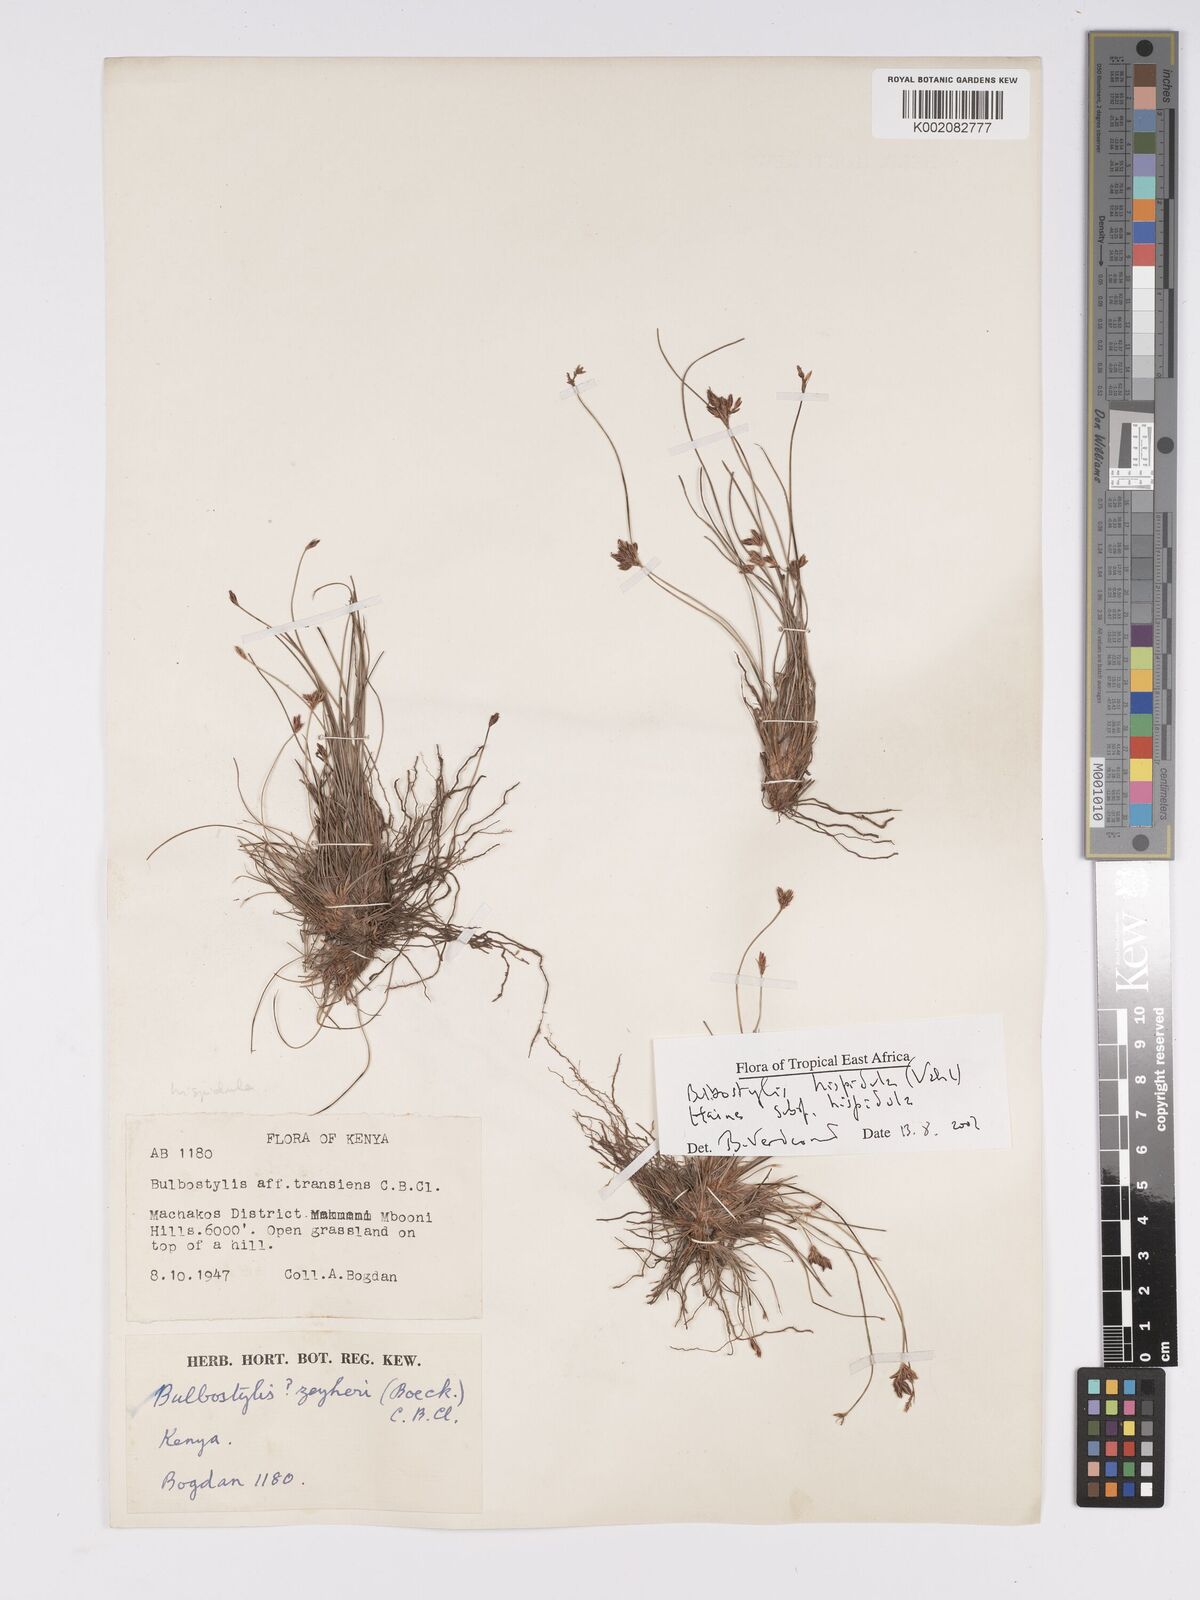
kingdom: Plantae
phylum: Tracheophyta
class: Liliopsida
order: Poales
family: Cyperaceae
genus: Bulbostylis
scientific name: Bulbostylis hispidula
